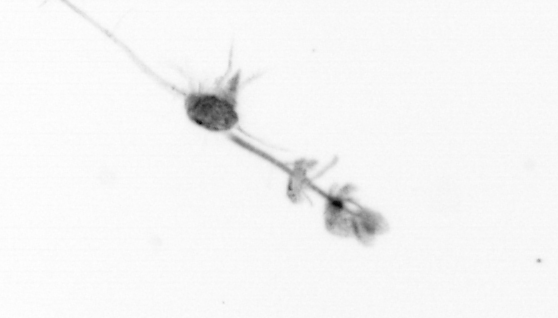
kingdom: Animalia
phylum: Arthropoda
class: Copepoda
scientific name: Copepoda
